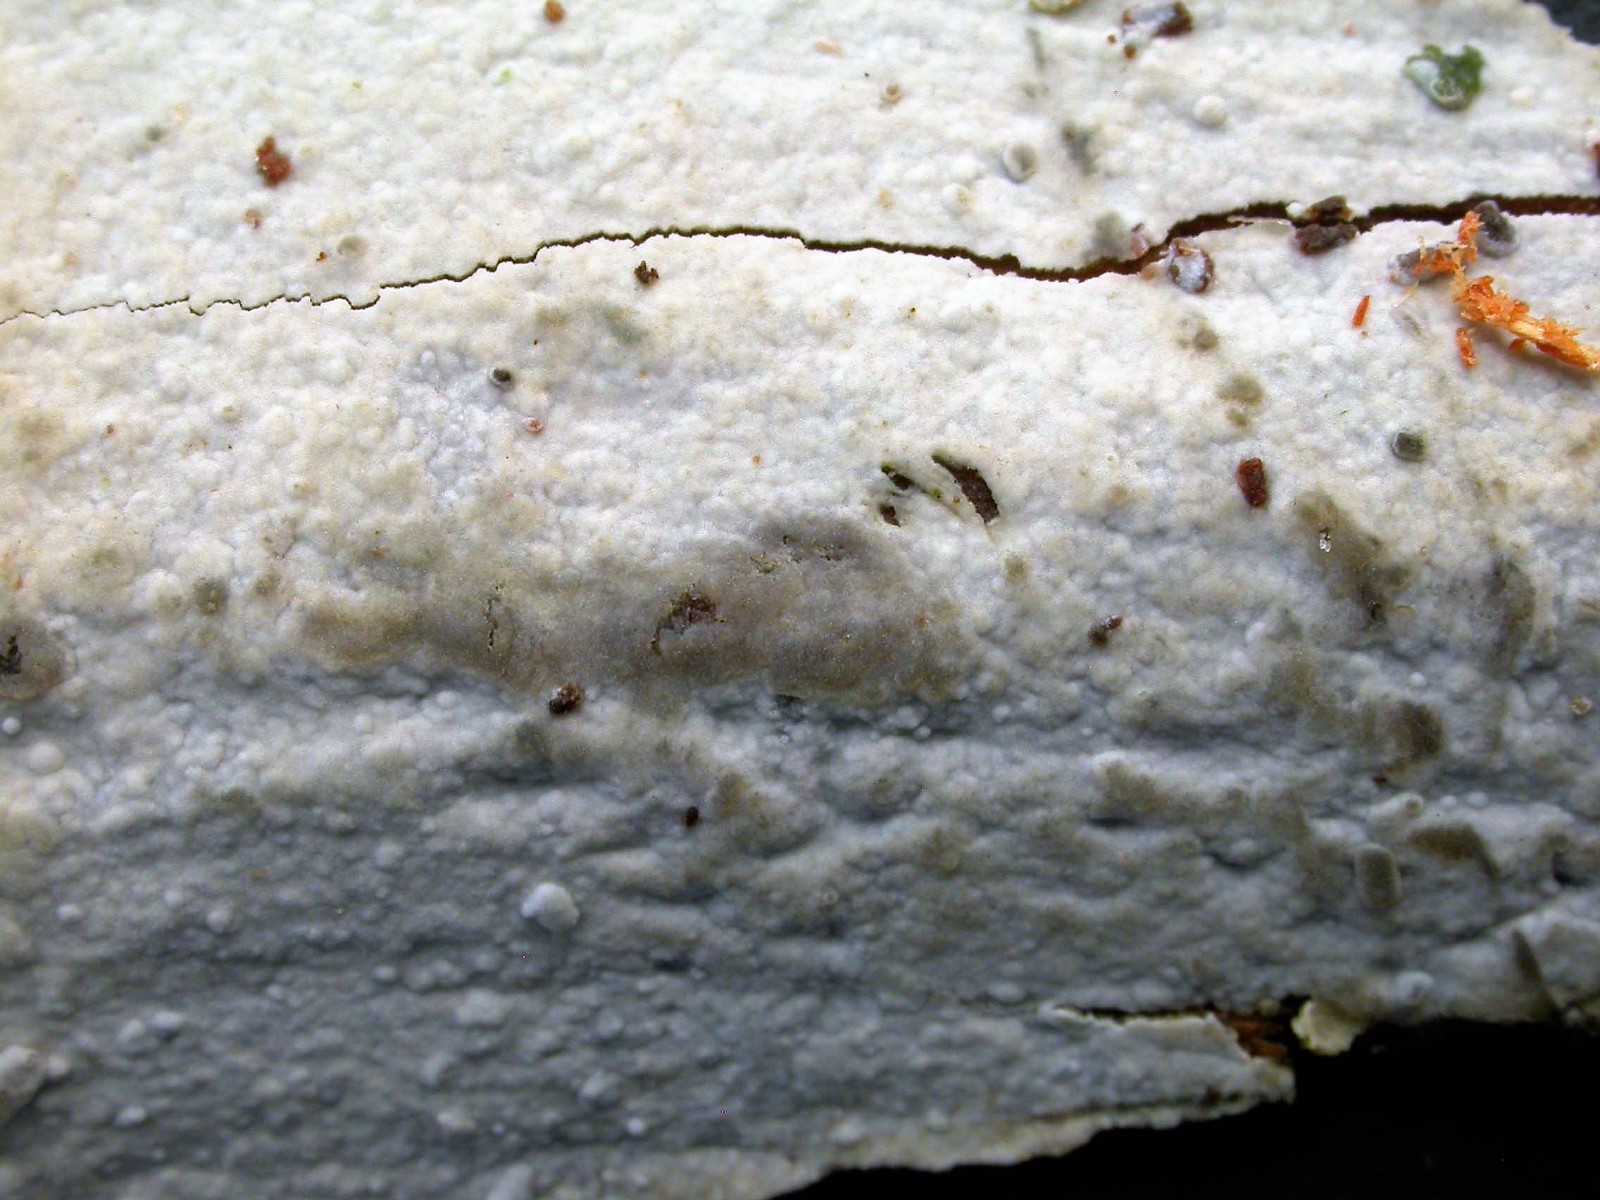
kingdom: Fungi
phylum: Basidiomycota
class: Agaricomycetes
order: Hymenochaetales
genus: Kurtia
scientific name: Kurtia argillacea
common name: Kurts kalkskind
